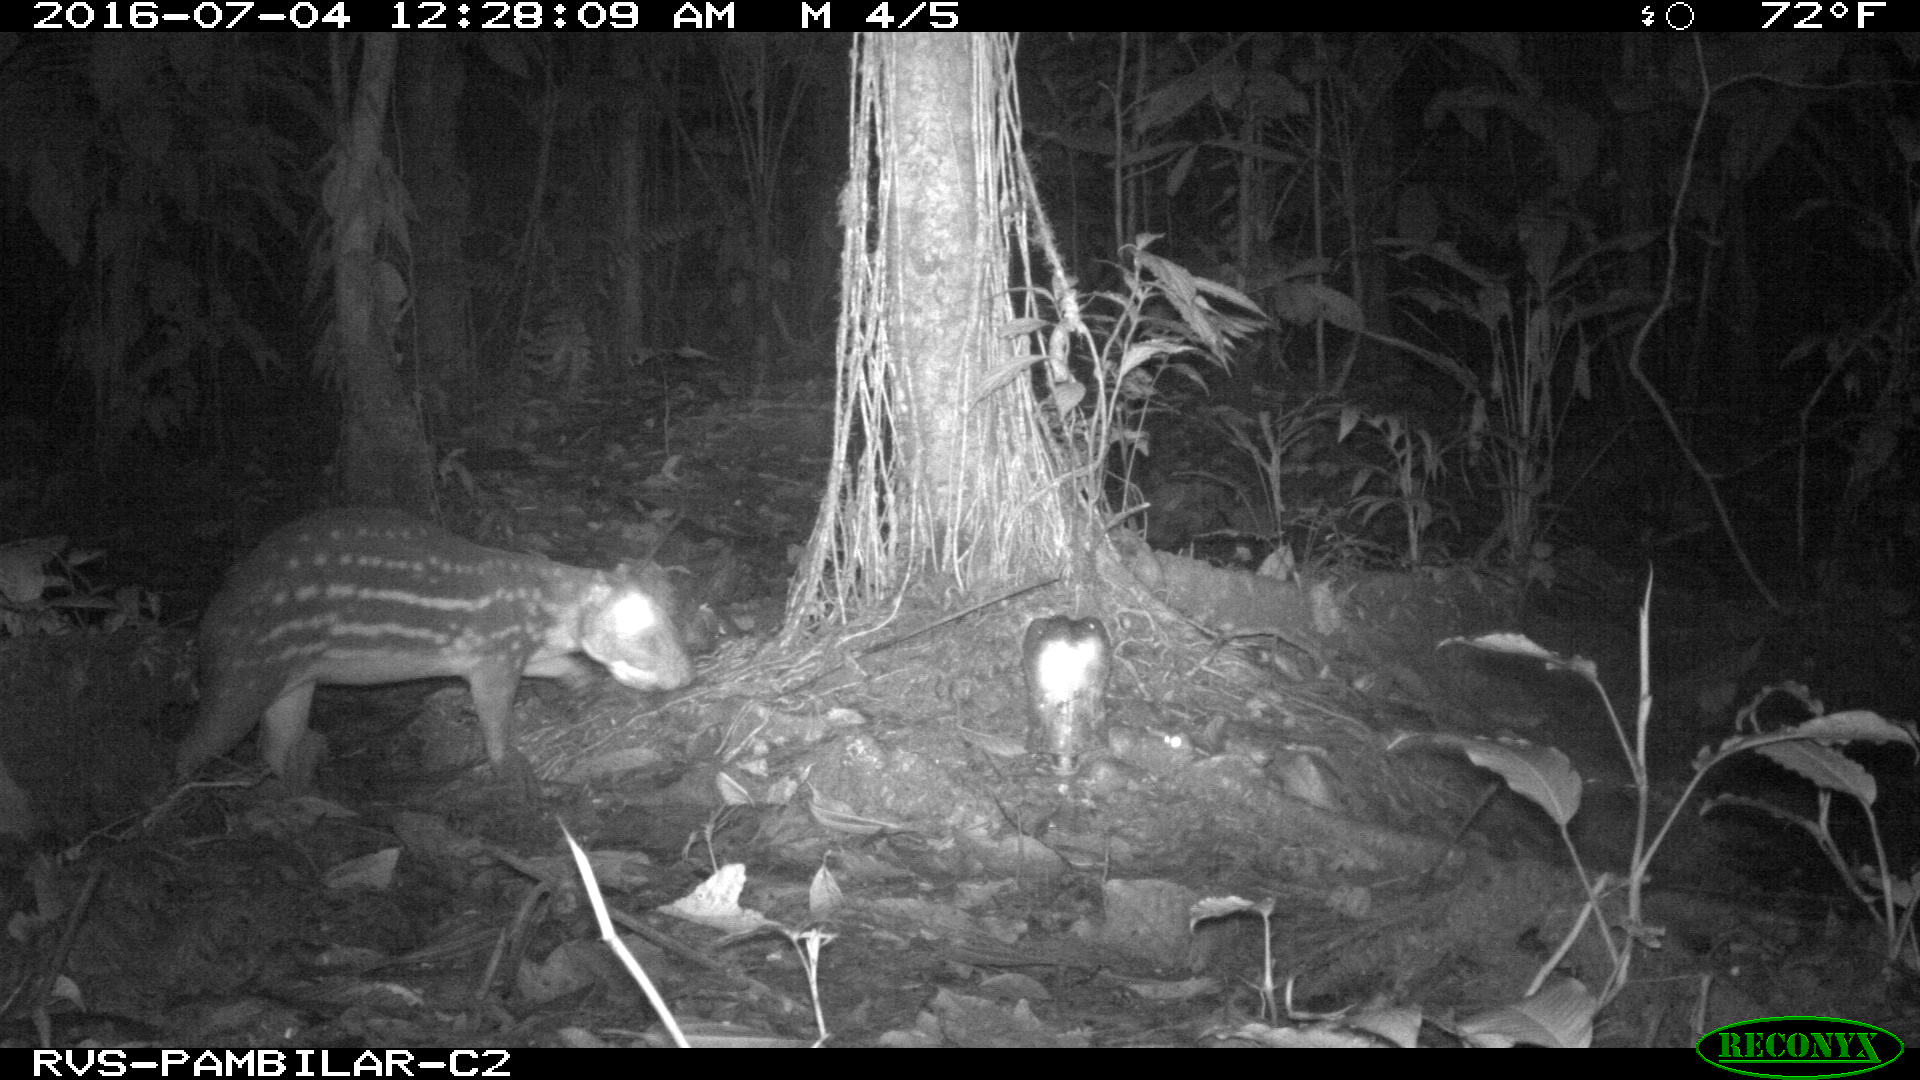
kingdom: Animalia
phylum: Chordata
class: Mammalia
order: Rodentia
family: Cuniculidae
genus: Cuniculus
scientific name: Cuniculus paca
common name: Lowland paca
